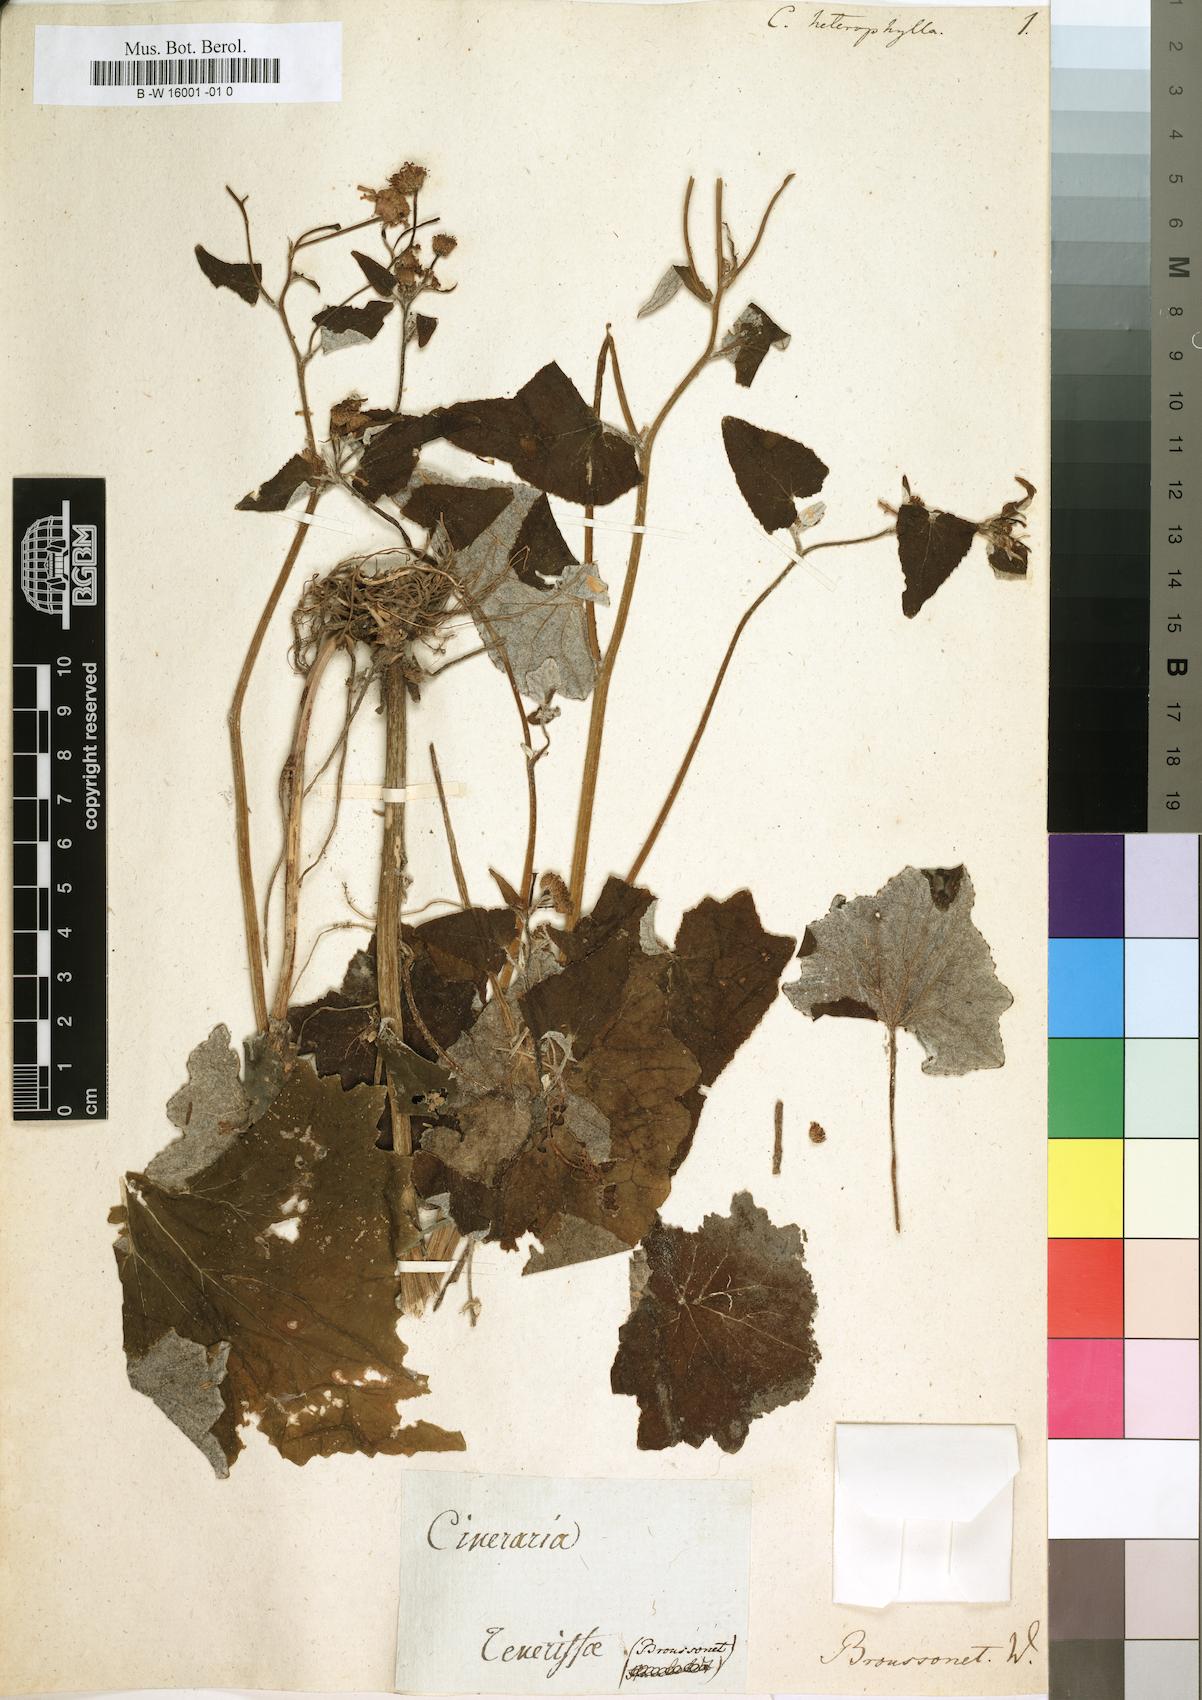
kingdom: Plantae
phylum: Tracheophyta
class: Magnoliopsida
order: Asterales
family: Asteraceae
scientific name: Asteraceae
